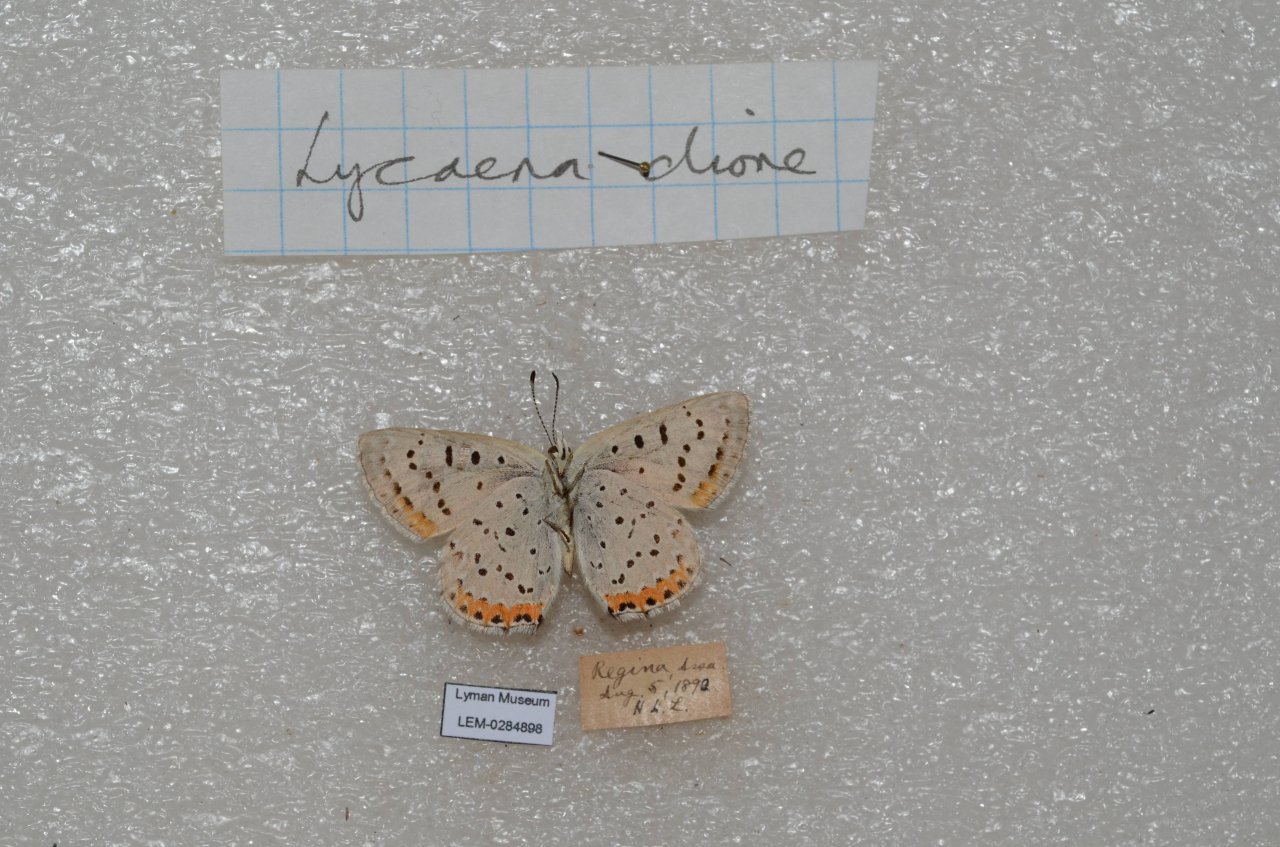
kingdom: Animalia
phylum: Arthropoda
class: Insecta
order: Lepidoptera
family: Lycaenidae
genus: Nacaduba
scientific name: Nacaduba dyopa
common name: Gray Copper
